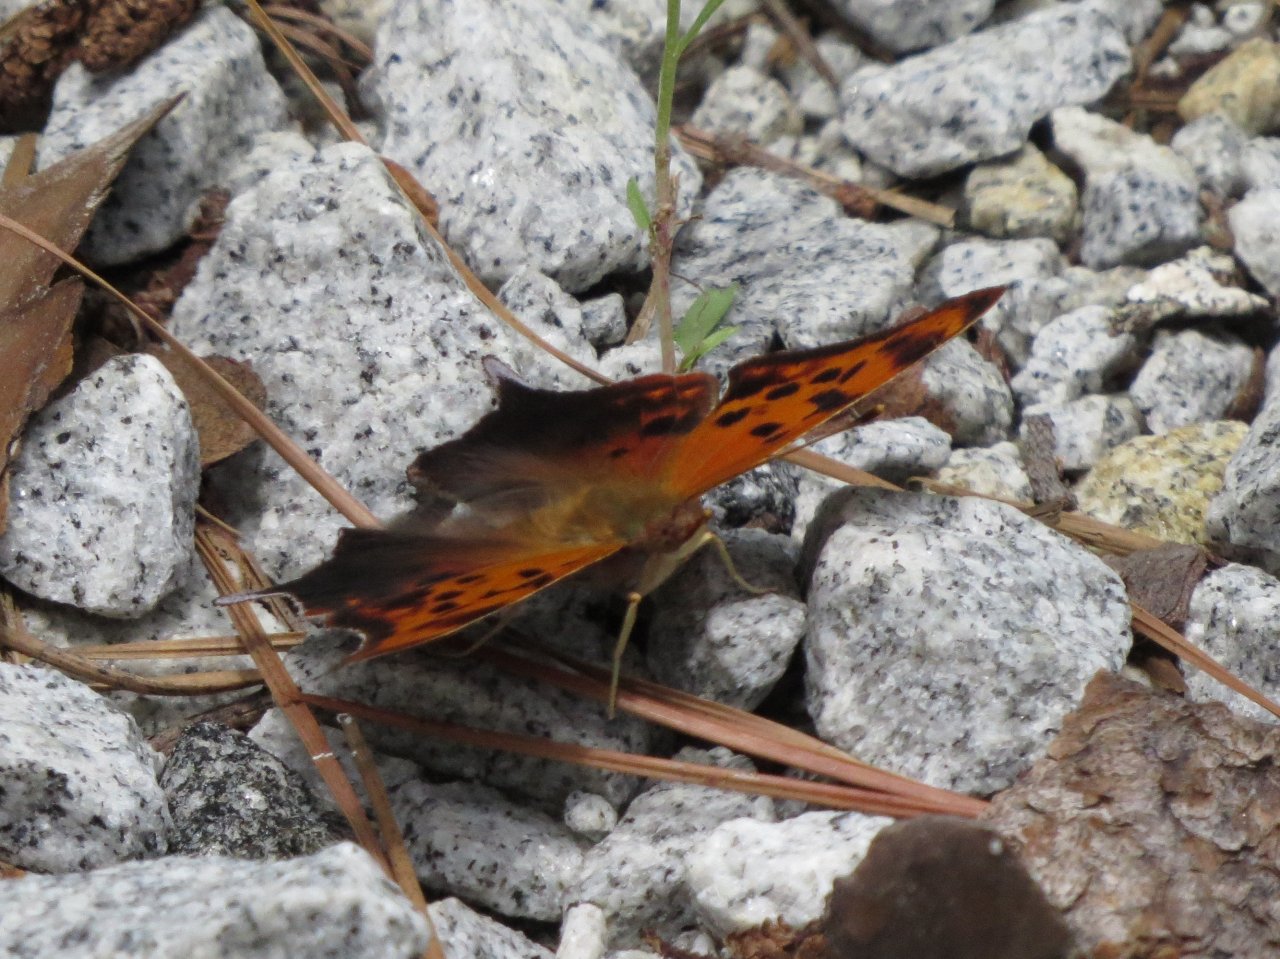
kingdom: Animalia
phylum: Arthropoda
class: Insecta
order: Lepidoptera
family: Nymphalidae
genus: Polygonia
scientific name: Polygonia interrogationis
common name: Question Mark
